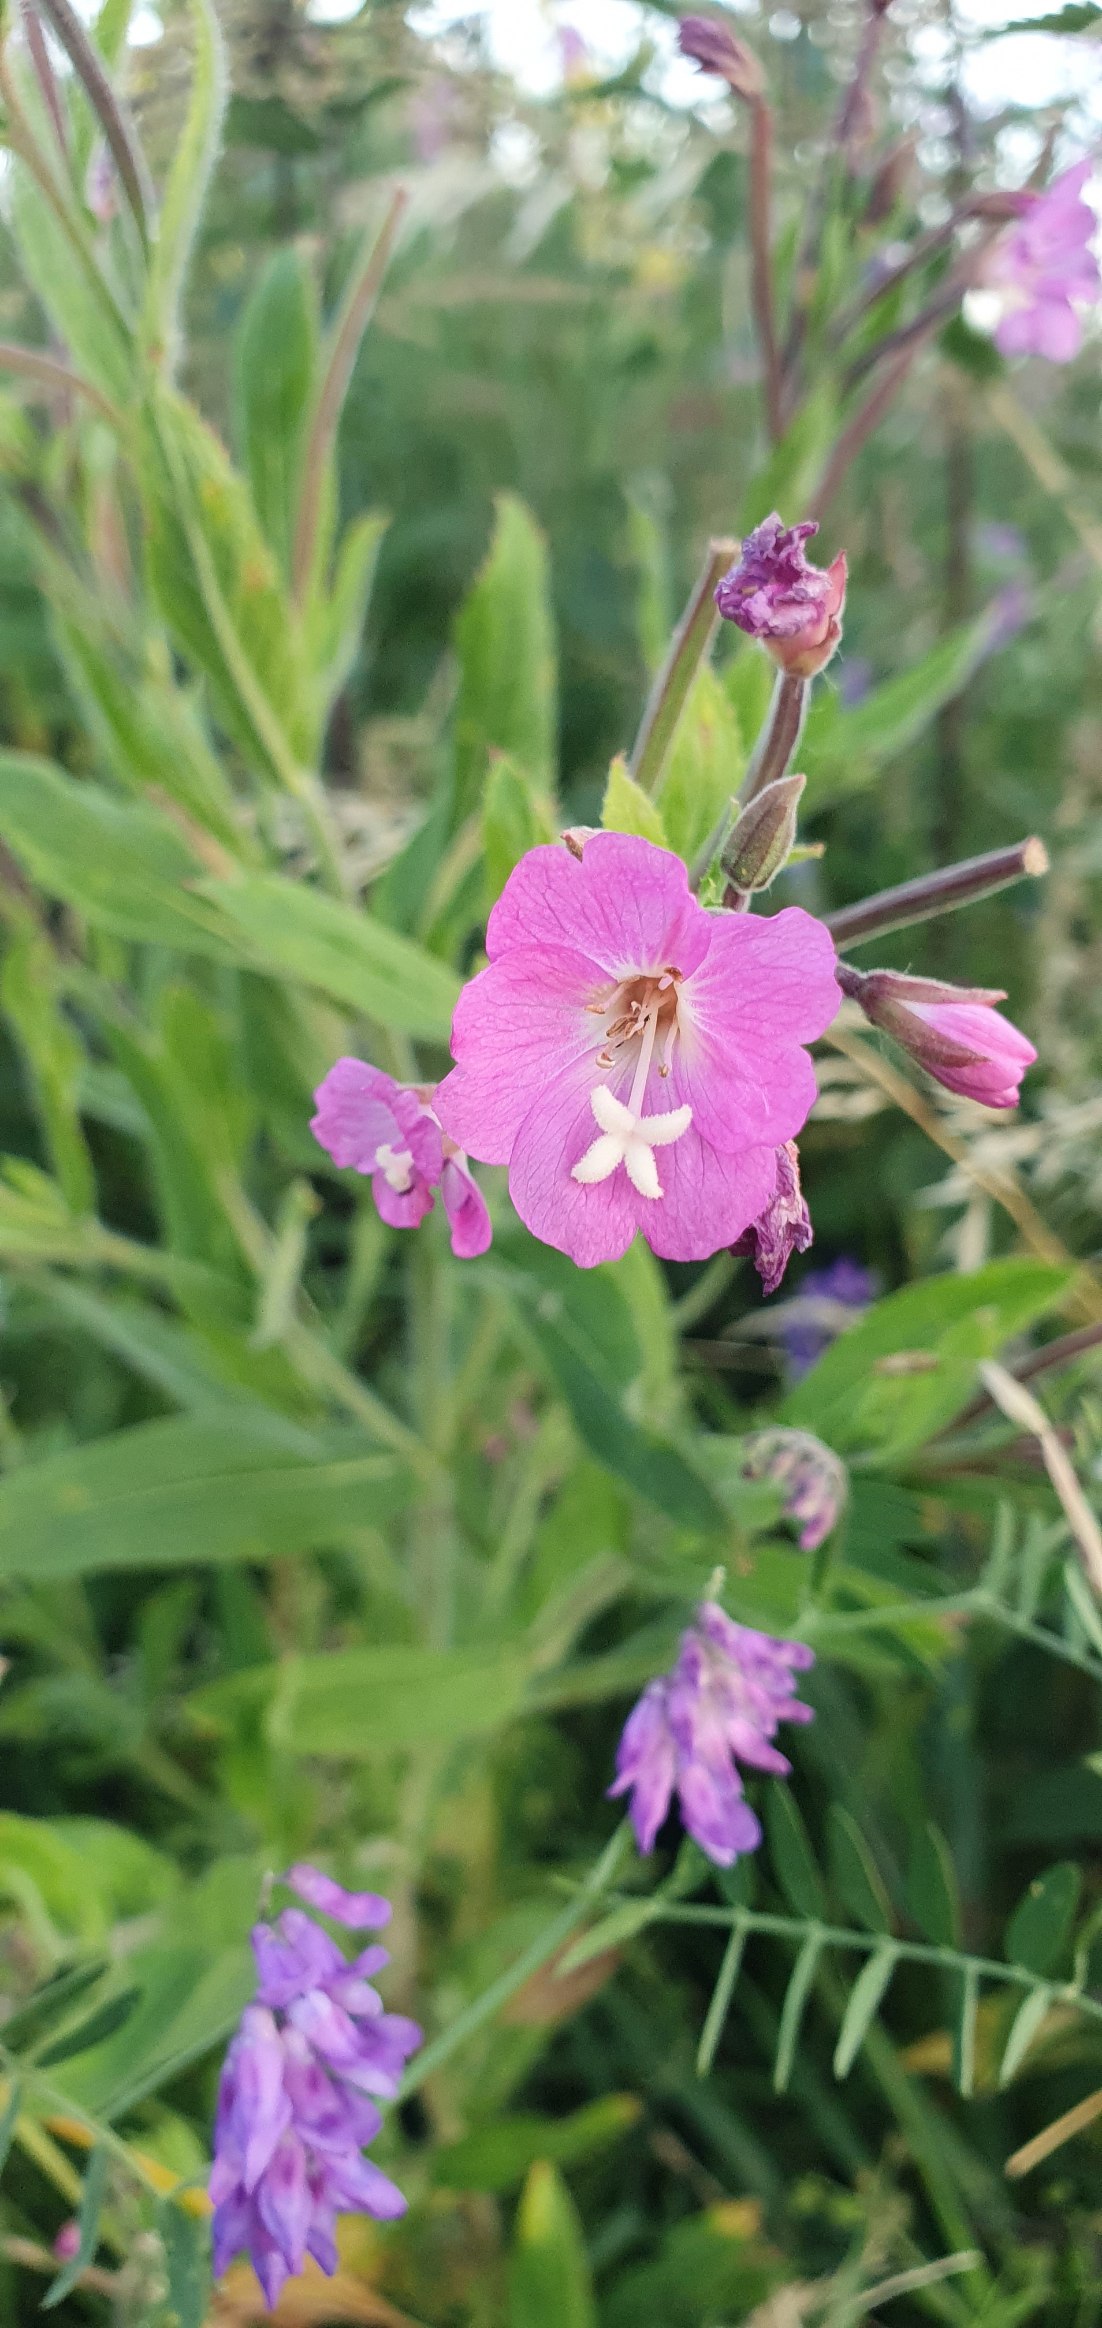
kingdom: Plantae
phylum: Tracheophyta
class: Magnoliopsida
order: Myrtales
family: Onagraceae
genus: Epilobium
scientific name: Epilobium hirsutum
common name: Lådden dueurt
